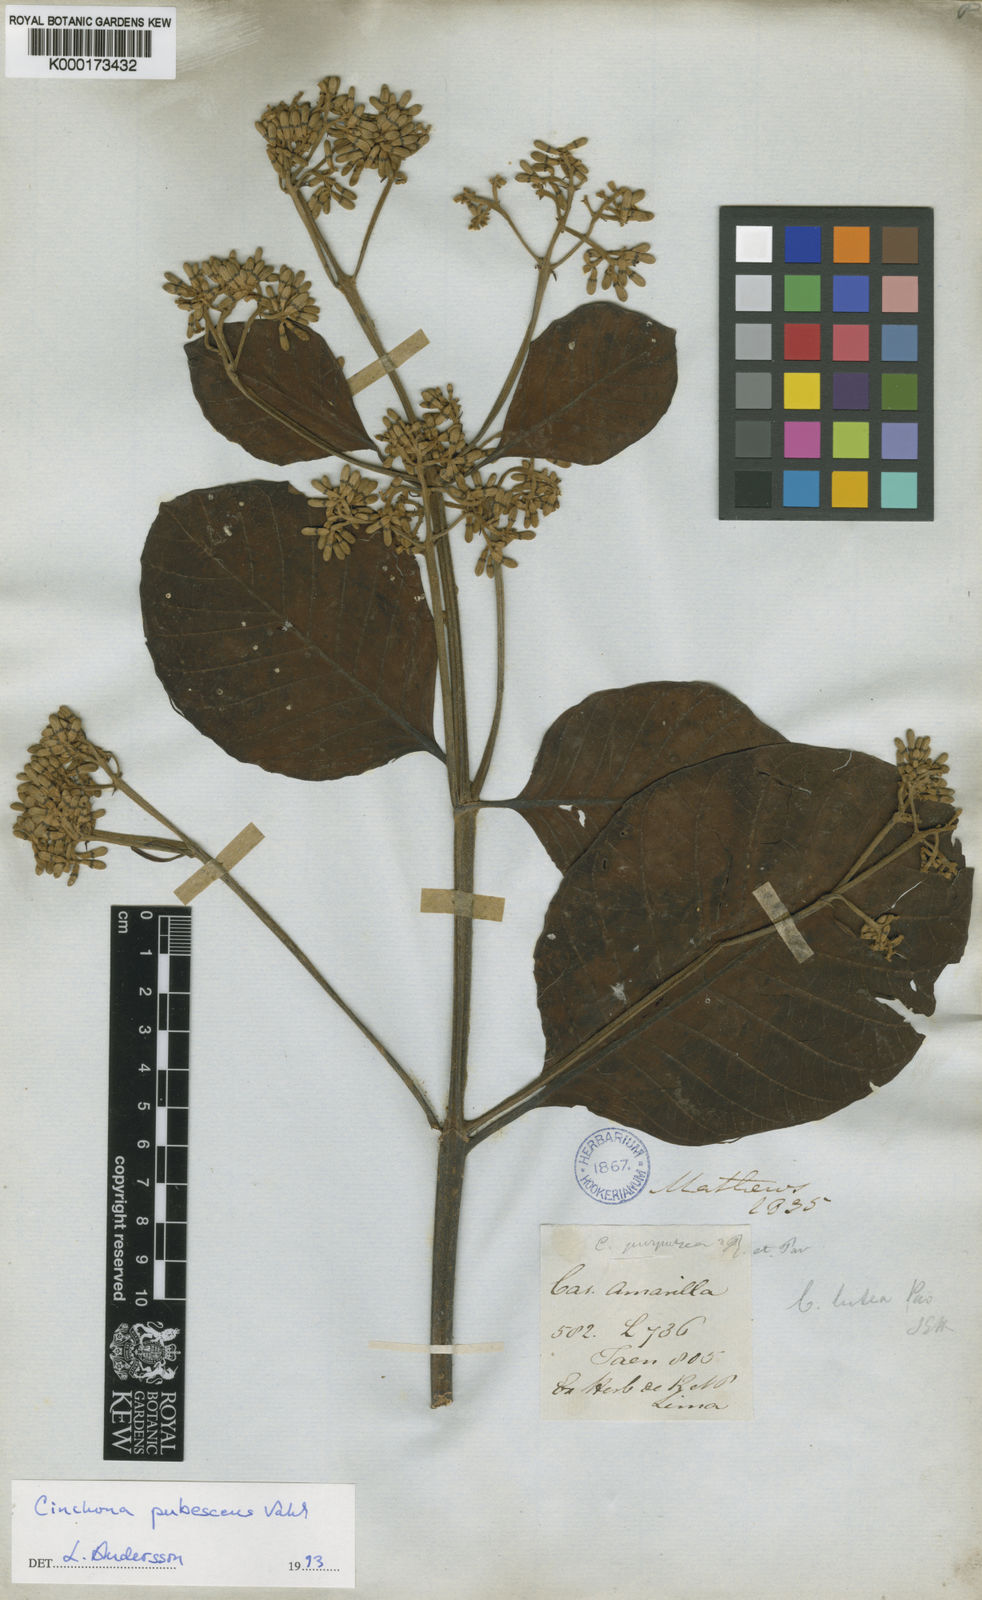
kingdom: Plantae
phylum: Tracheophyta
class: Magnoliopsida
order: Gentianales
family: Rubiaceae
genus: Cinchona
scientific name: Cinchona pubescens
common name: Quinine
